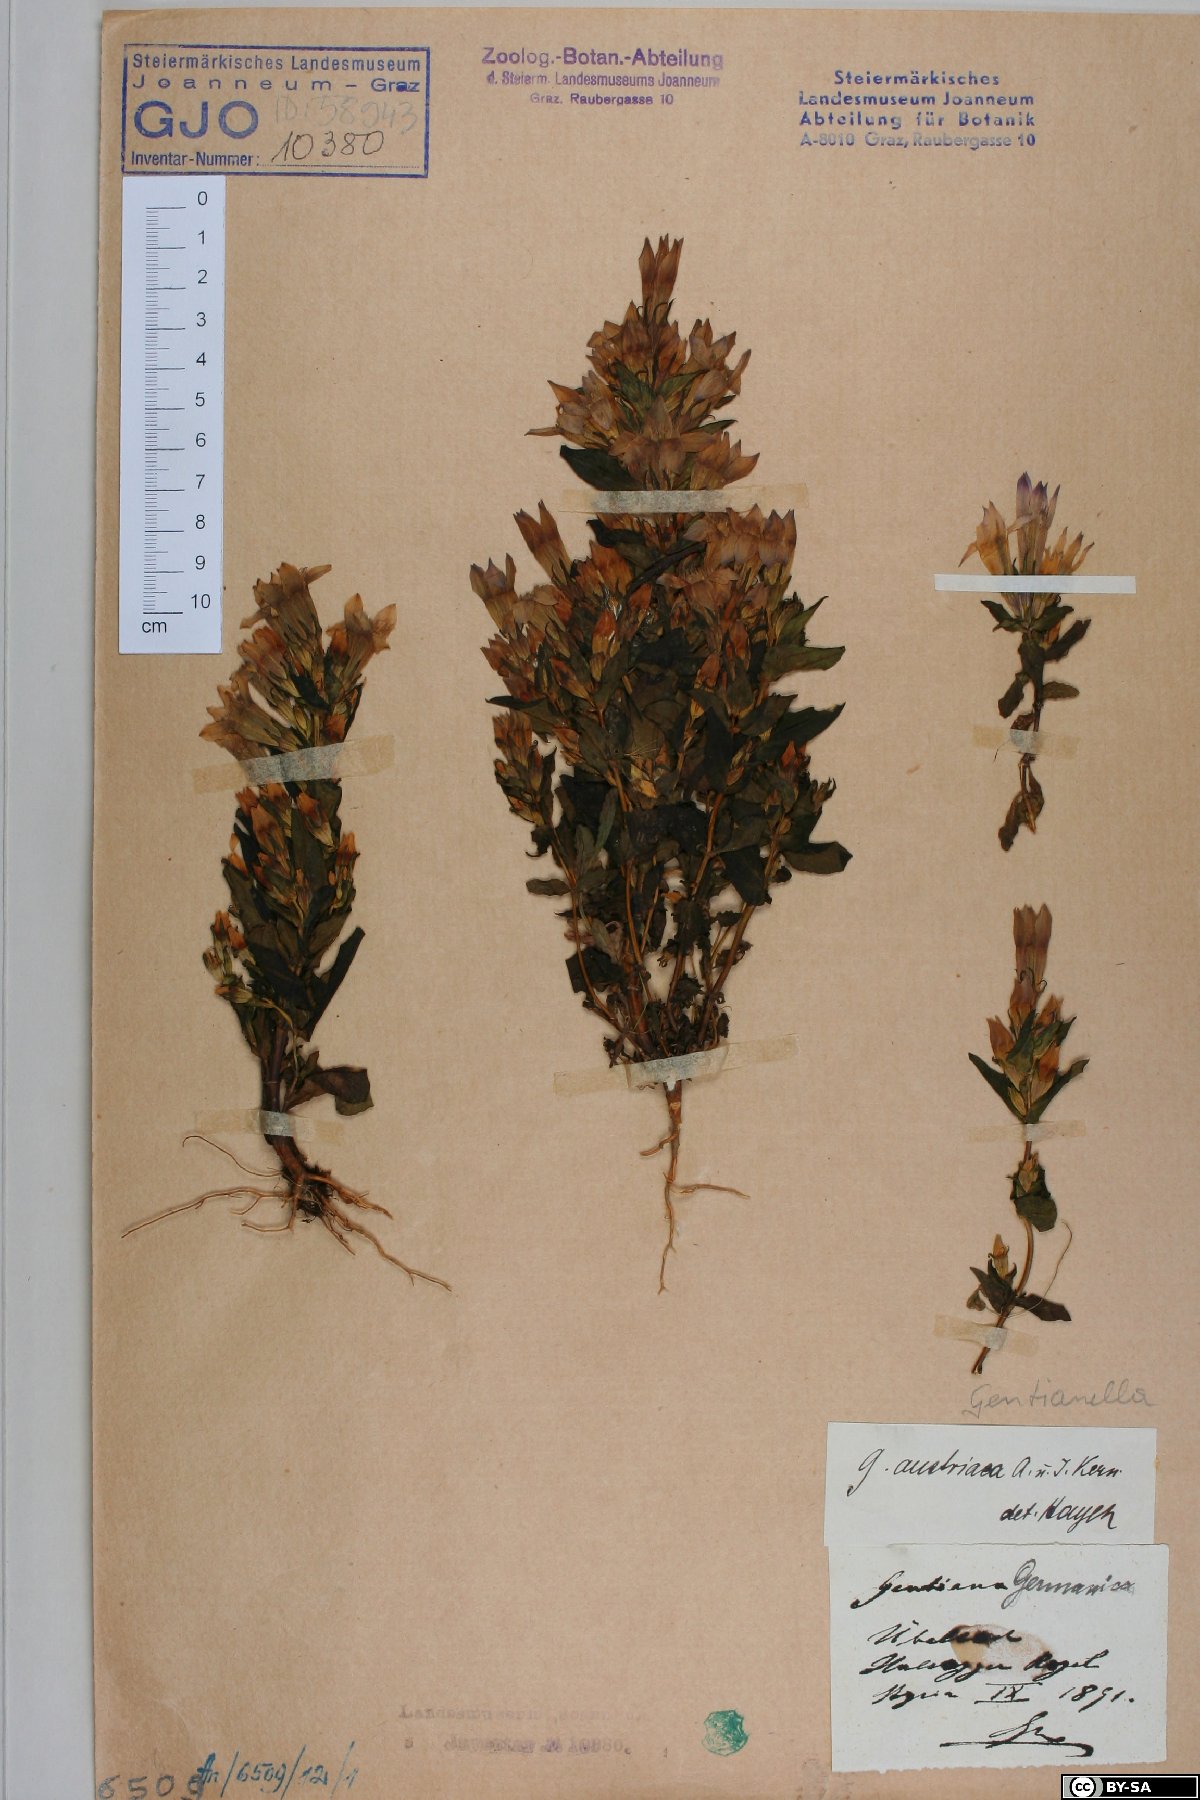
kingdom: Plantae
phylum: Tracheophyta
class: Magnoliopsida
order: Gentianales
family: Gentianaceae
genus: Gentianella
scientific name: Gentianella austriaca
